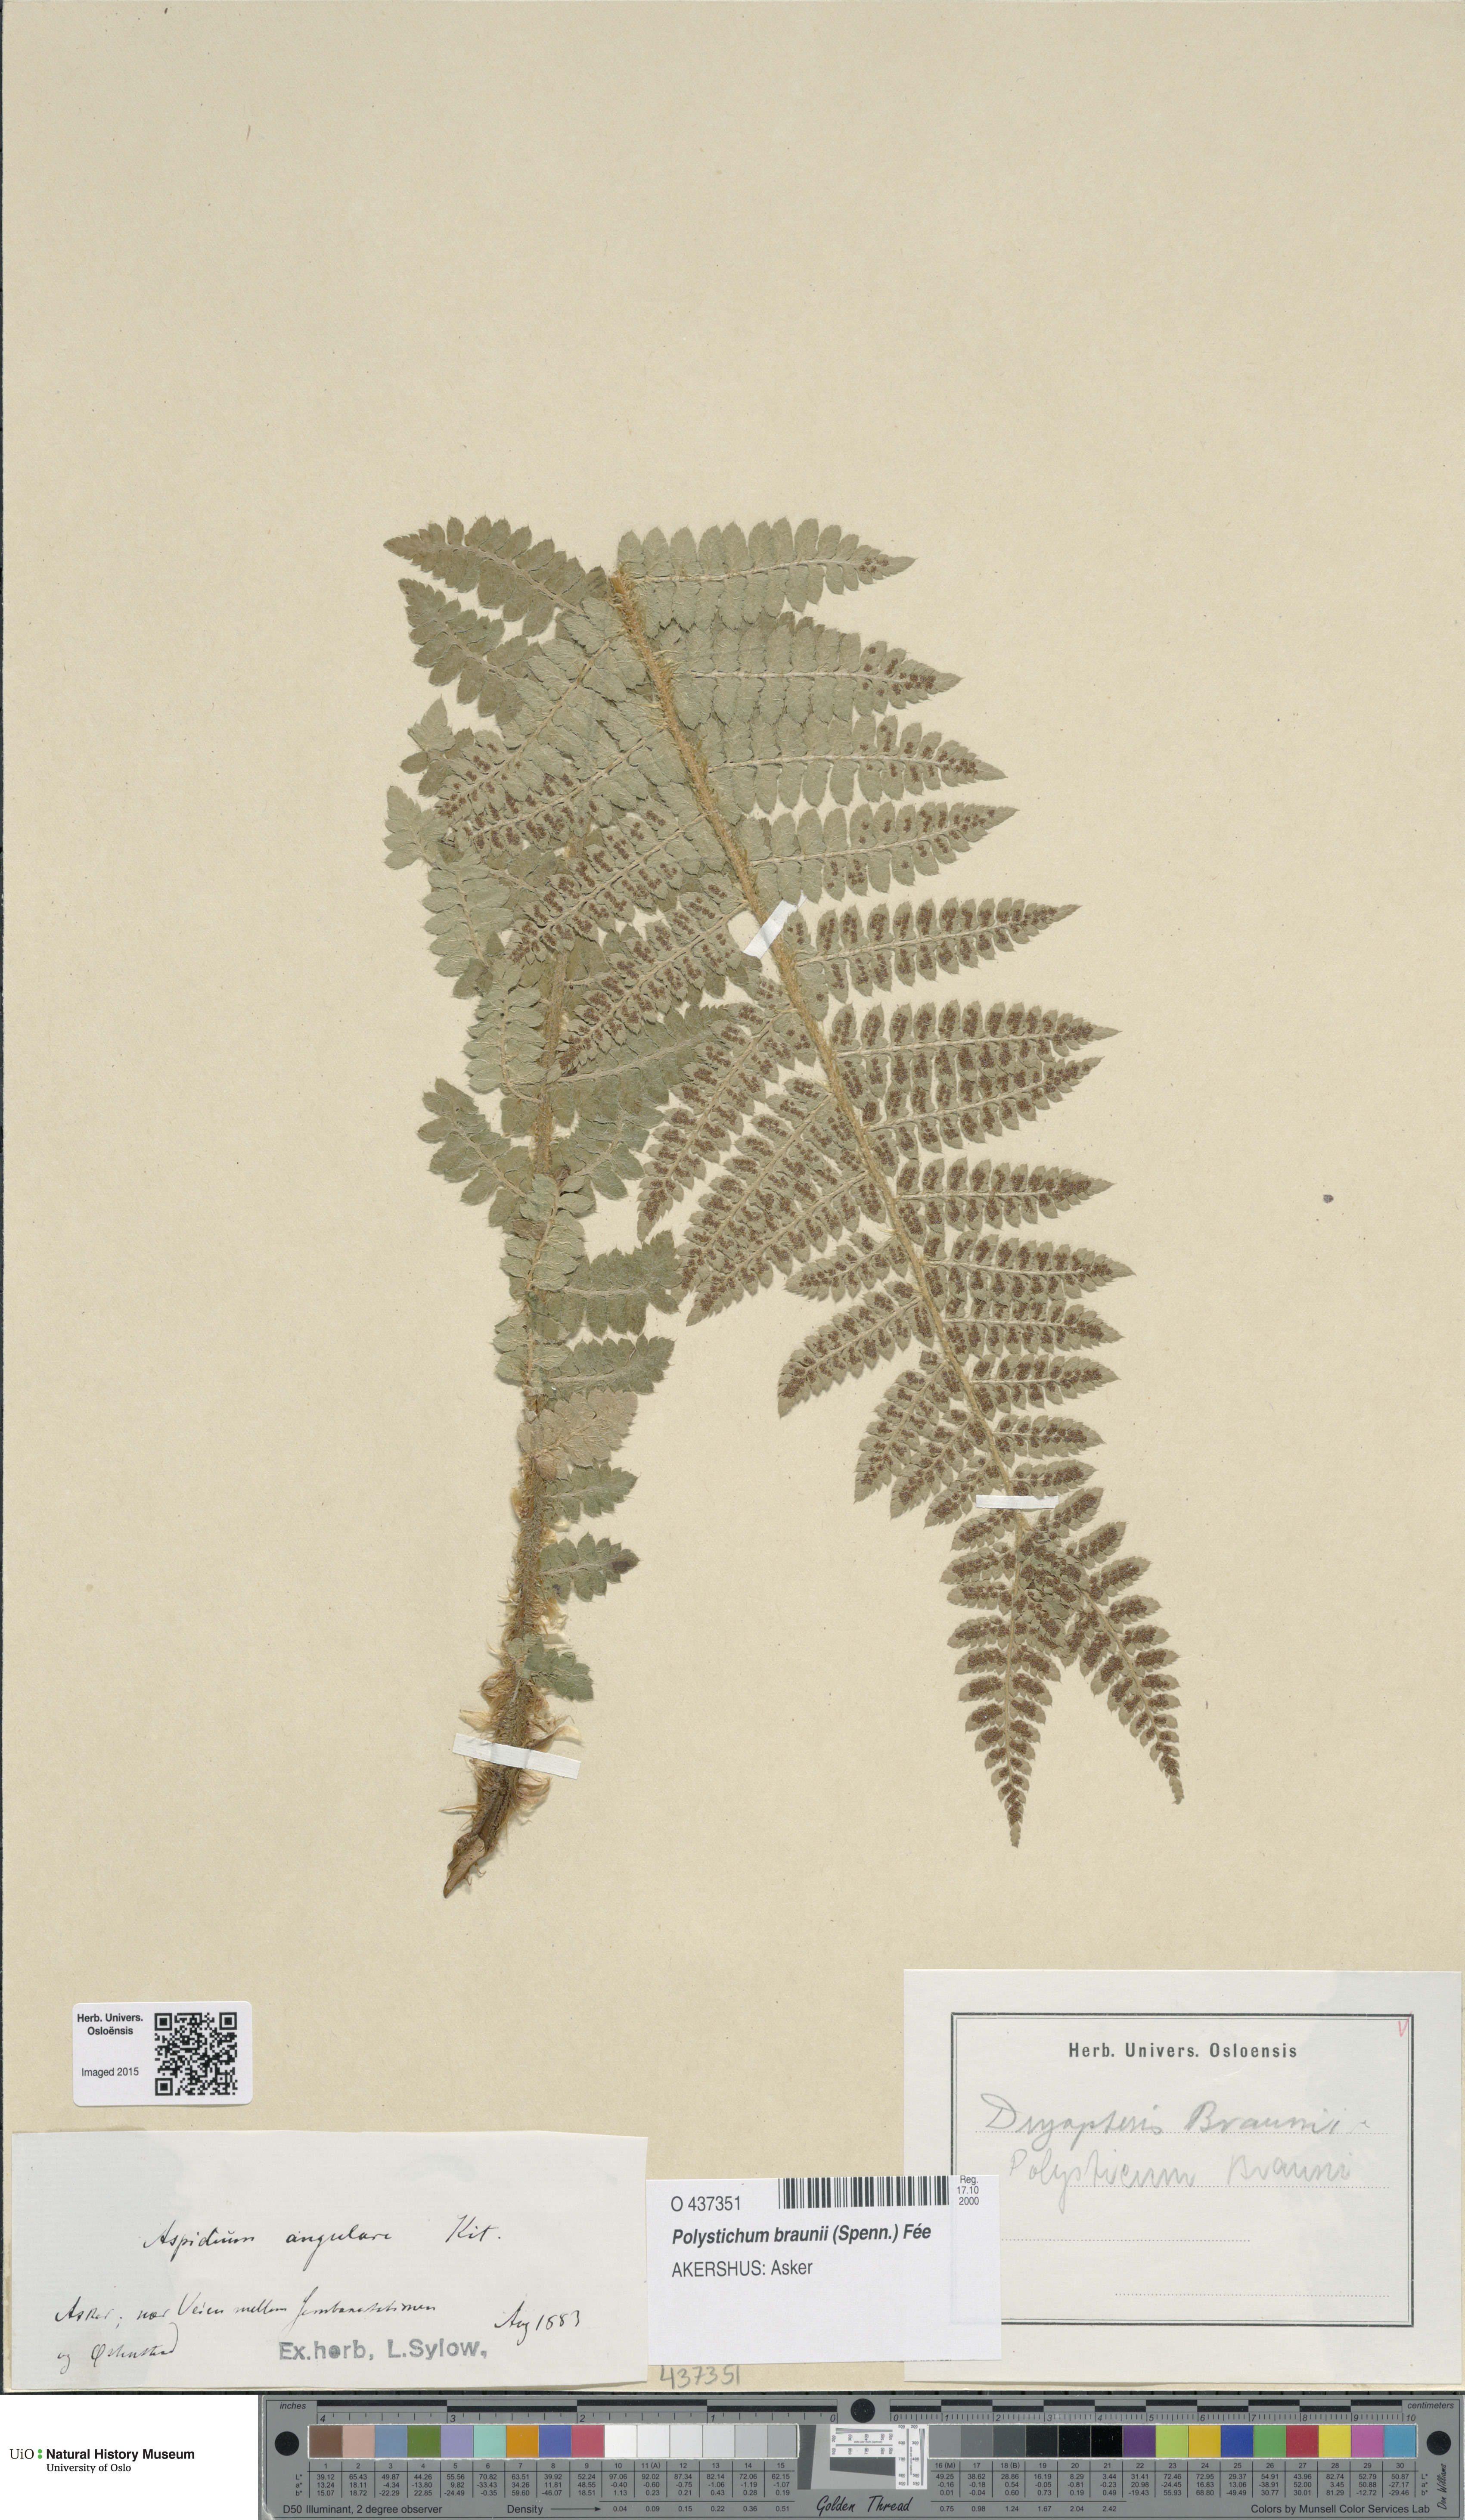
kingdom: Plantae
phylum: Tracheophyta
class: Polypodiopsida
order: Polypodiales
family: Dryopteridaceae
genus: Polystichum
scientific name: Polystichum braunii
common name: Braun's holly fern
